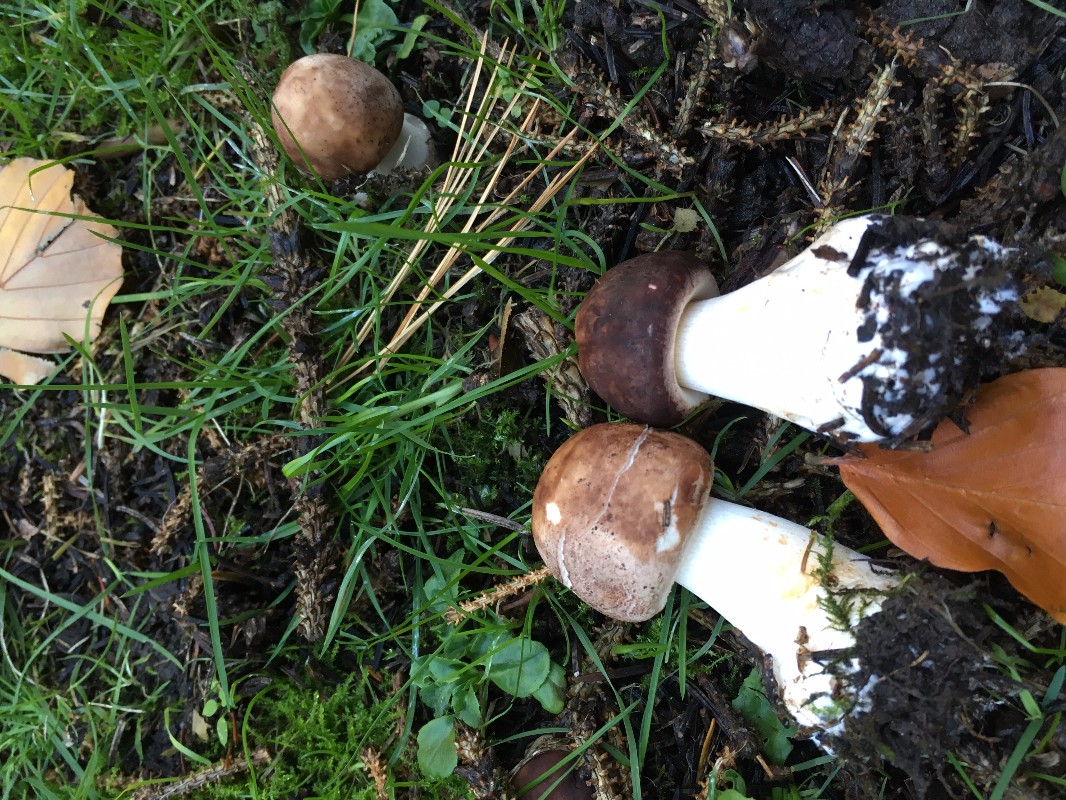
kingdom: Fungi
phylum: Basidiomycota
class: Agaricomycetes
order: Agaricales
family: Agaricaceae
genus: Chlorophyllum
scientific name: Chlorophyllum brunneum
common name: giftig rabarberhat
